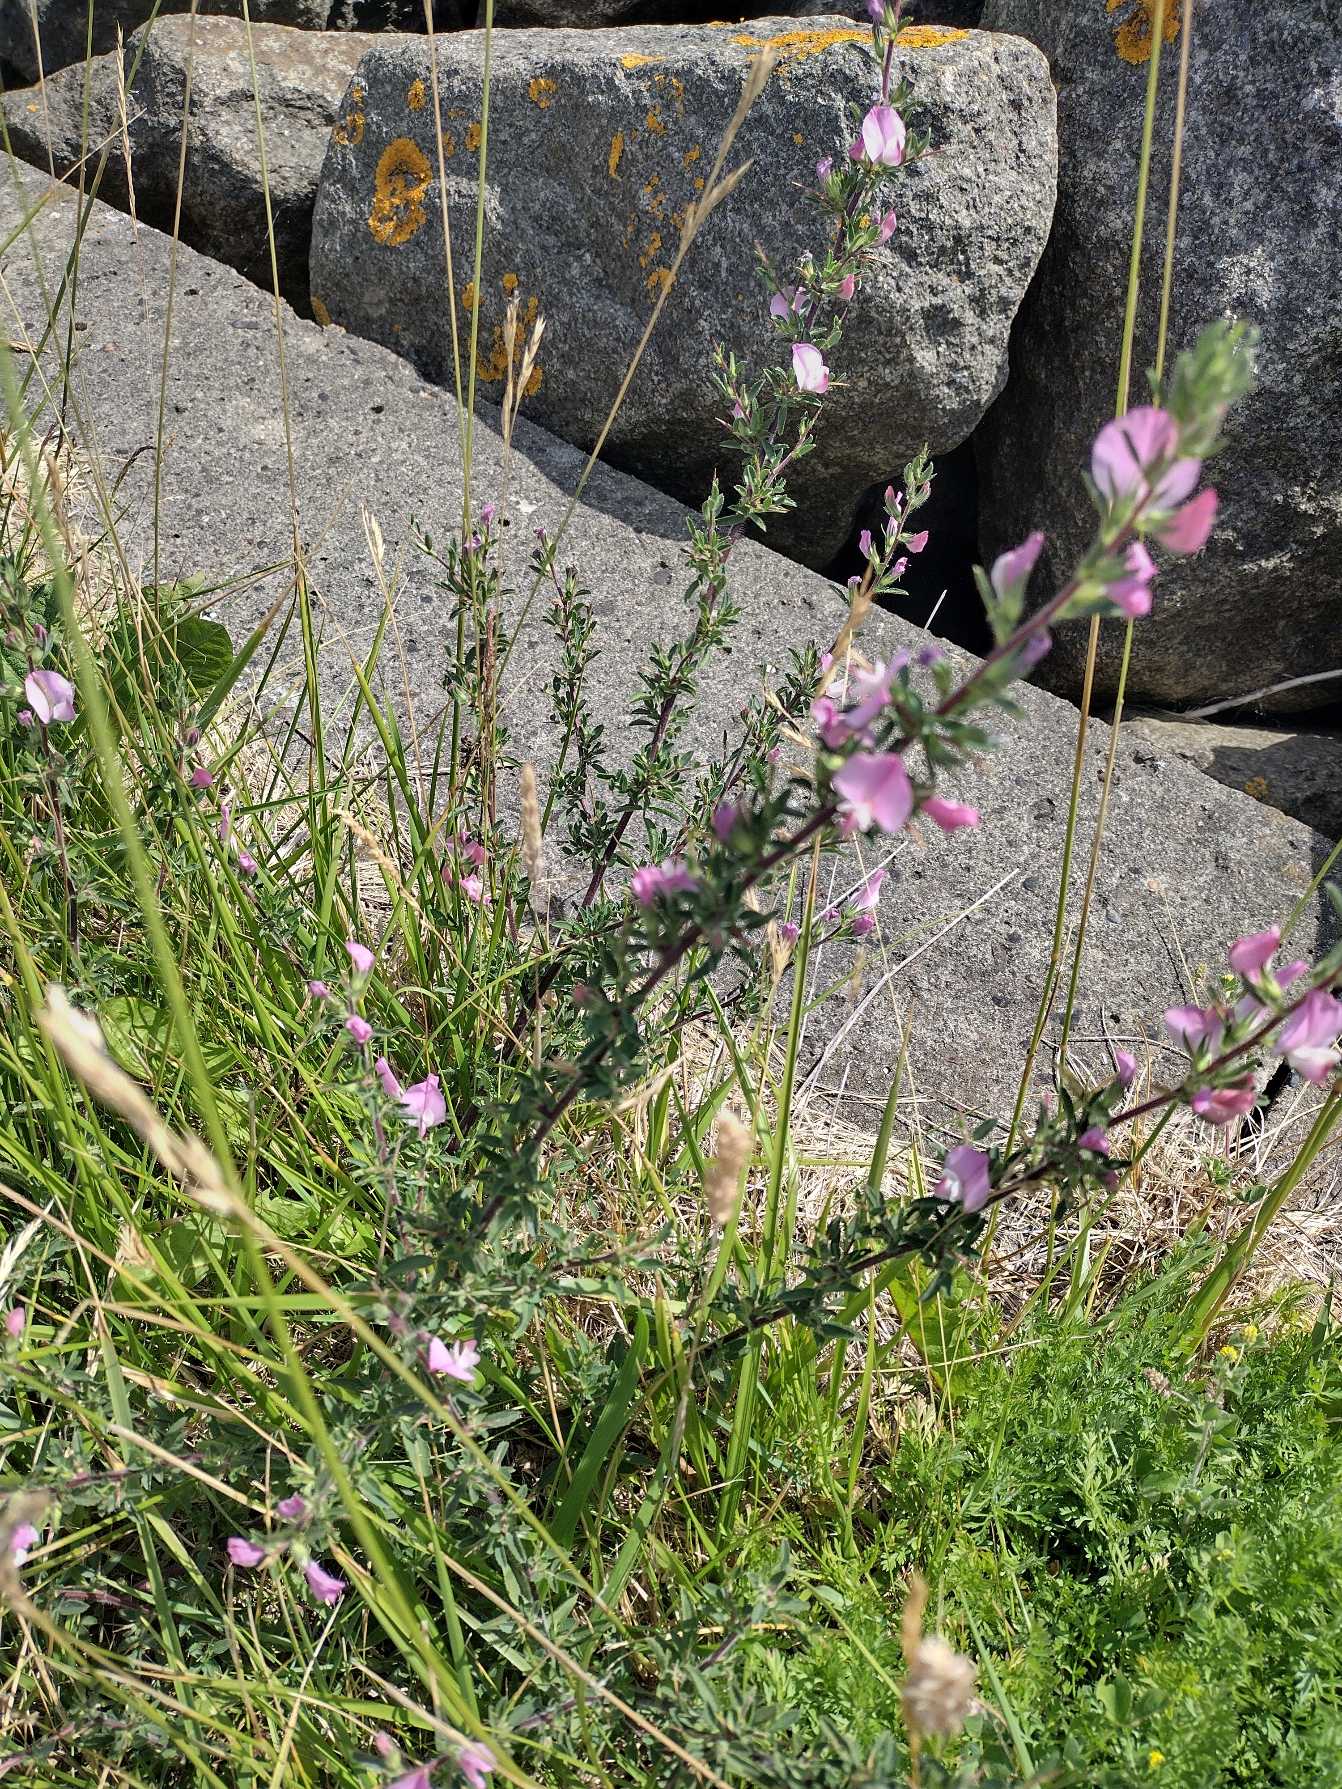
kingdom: Plantae
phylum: Tracheophyta
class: Magnoliopsida
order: Fabales
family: Fabaceae
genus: Ononis
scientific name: Ononis spinosa
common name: Strand-krageklo
